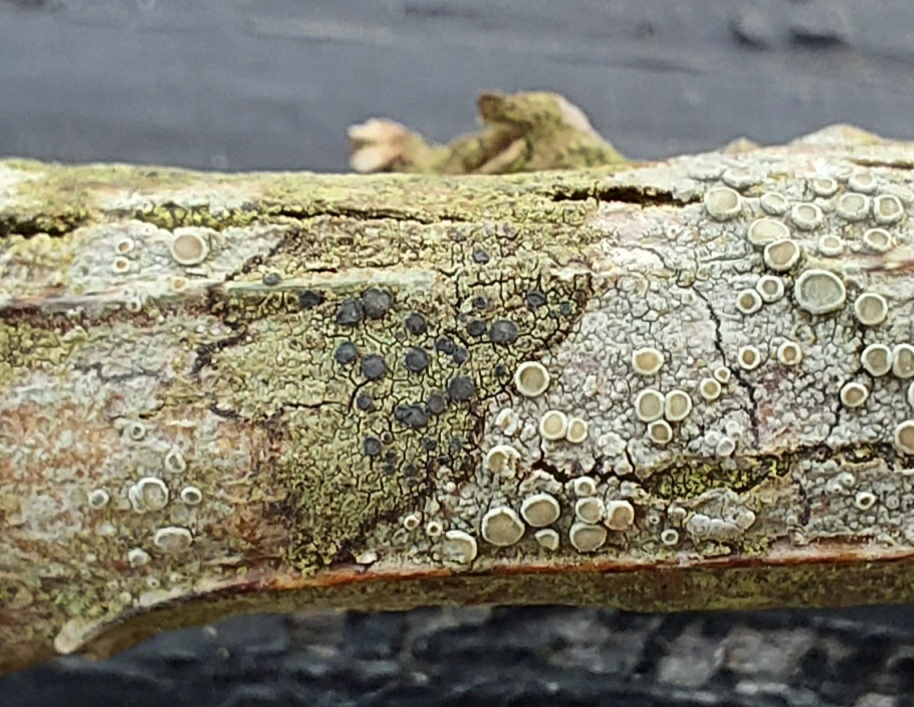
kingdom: Fungi
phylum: Ascomycota
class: Lecanoromycetes
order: Lecanorales
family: Lecanoraceae
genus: Lecidella
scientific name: Lecidella elaeochroma
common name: grågrøn skivelav
